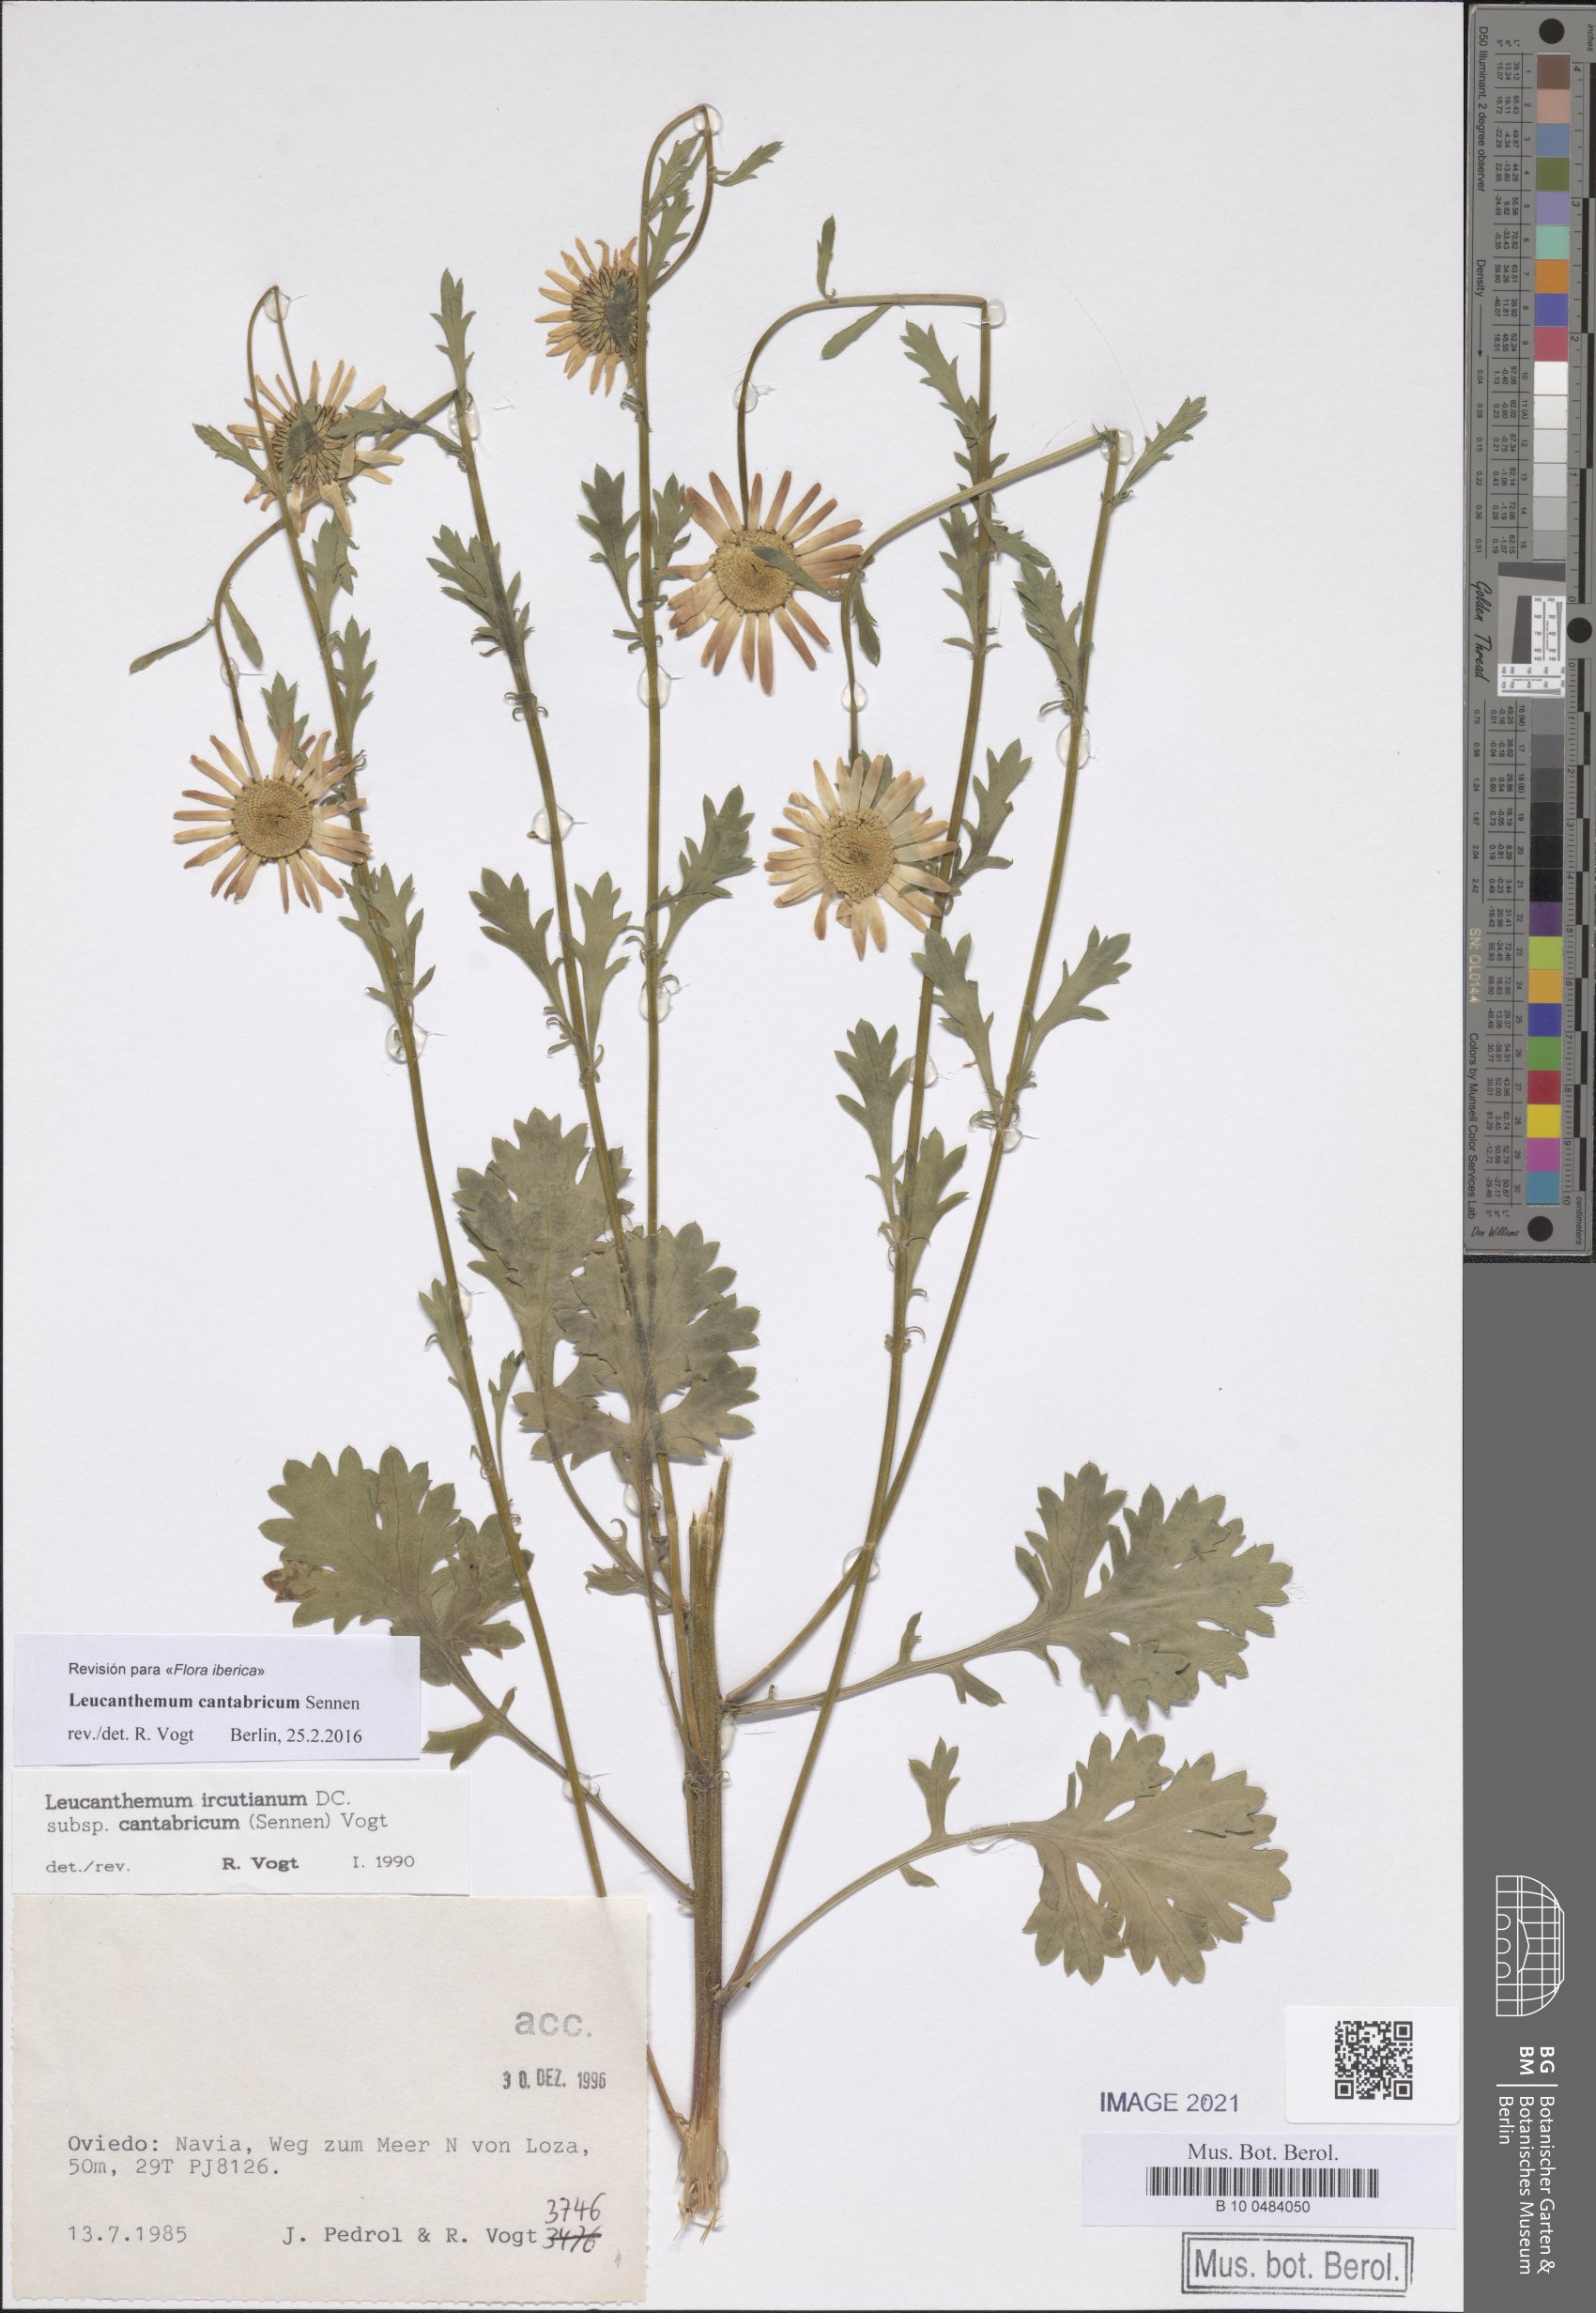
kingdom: Plantae
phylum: Tracheophyta
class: Magnoliopsida
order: Asterales
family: Asteraceae
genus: Leucanthemum
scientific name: Leucanthemum cantabricum
